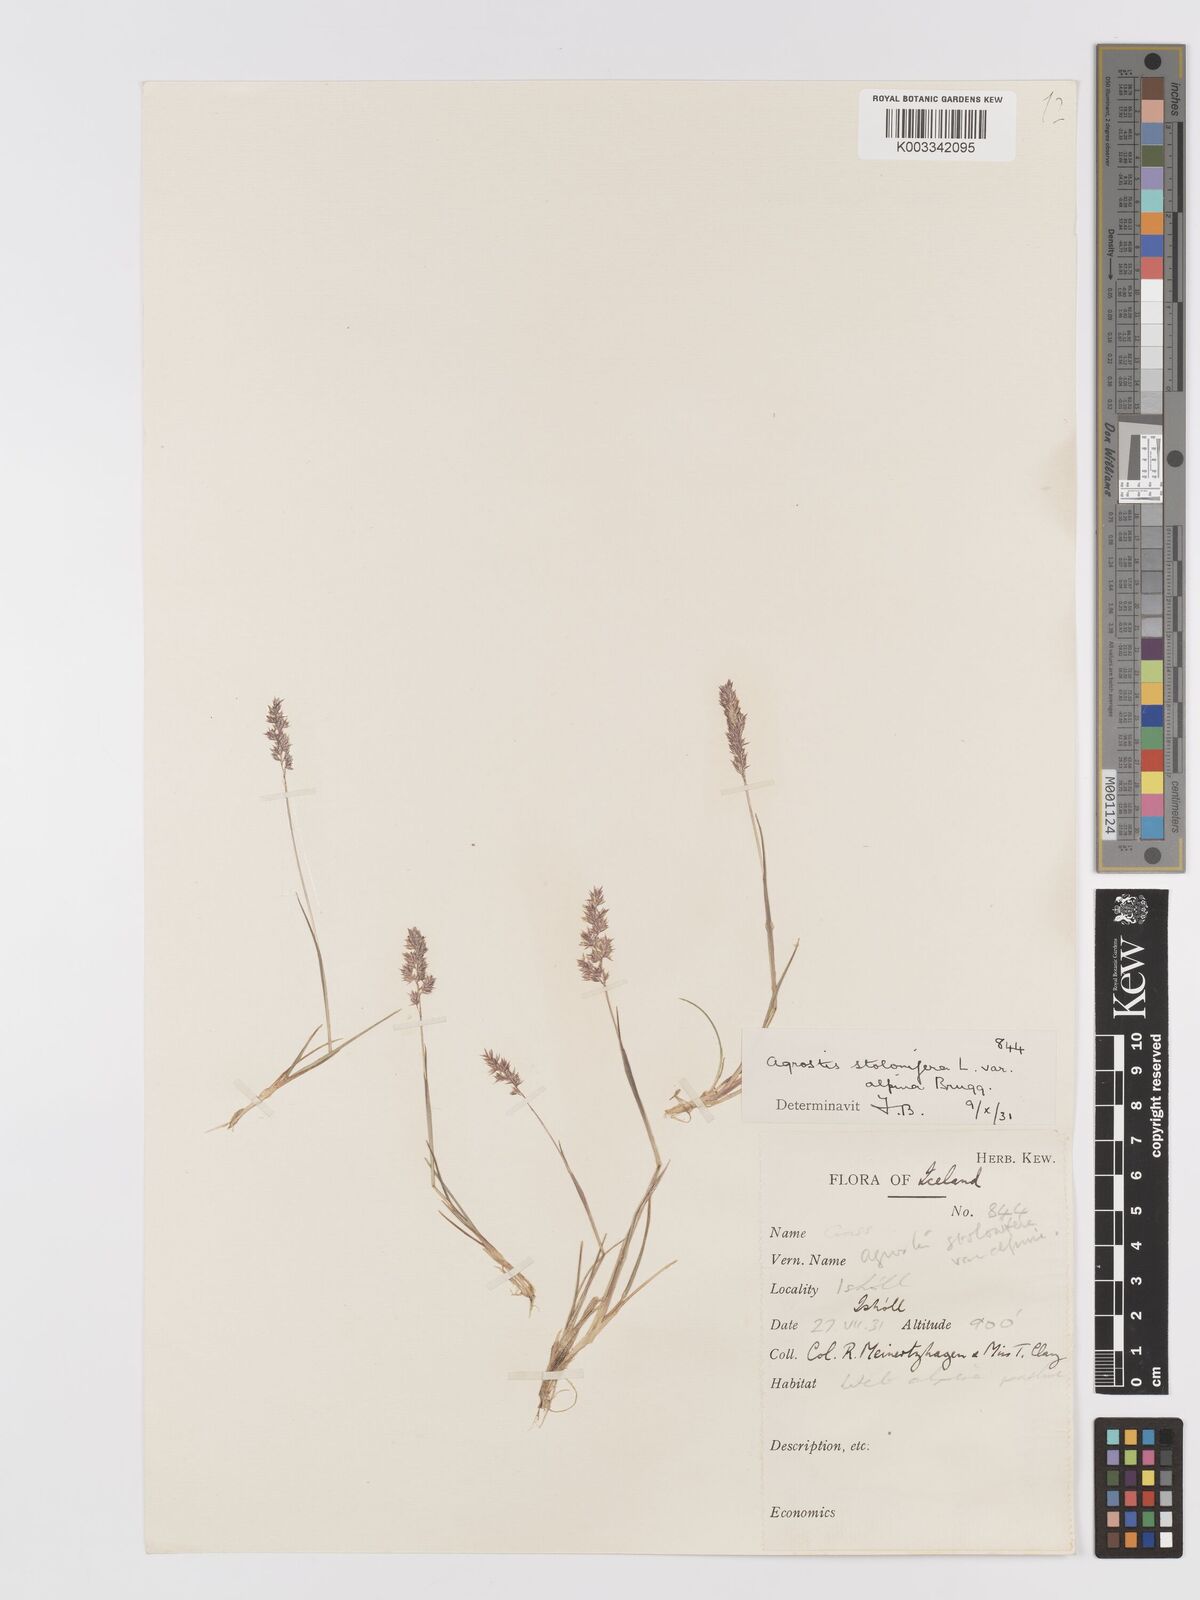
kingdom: Plantae
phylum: Tracheophyta
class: Liliopsida
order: Poales
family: Poaceae
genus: Agrostis
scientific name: Agrostis stolonifera
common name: Creeping bentgrass
